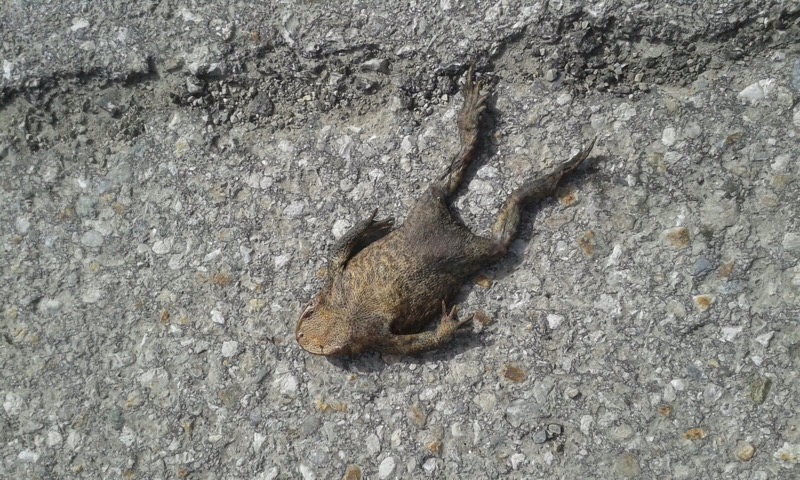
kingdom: Animalia
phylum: Chordata
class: Amphibia
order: Anura
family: Bufonidae
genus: Bufo
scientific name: Bufo bufo
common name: Common toad
